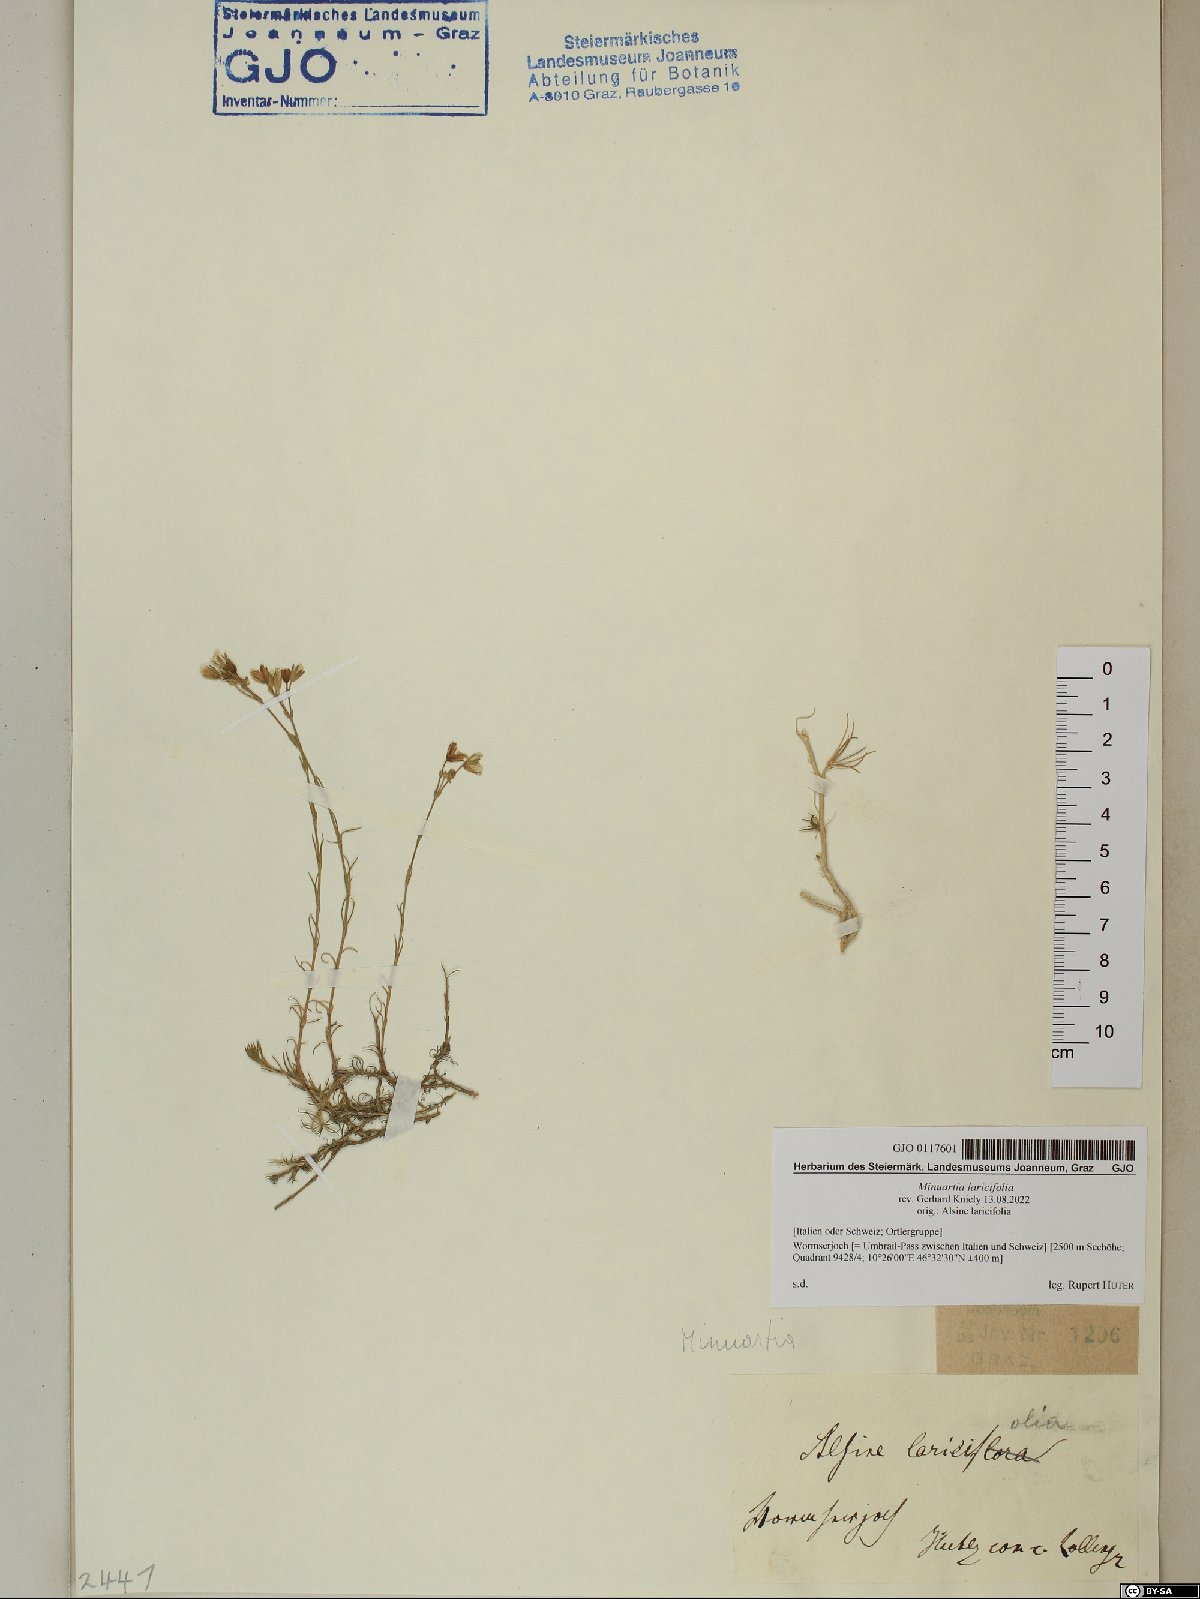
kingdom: Plantae
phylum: Tracheophyta
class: Magnoliopsida
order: Caryophyllales
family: Caryophyllaceae
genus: Cherleria
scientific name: Cherleria laricifolia
